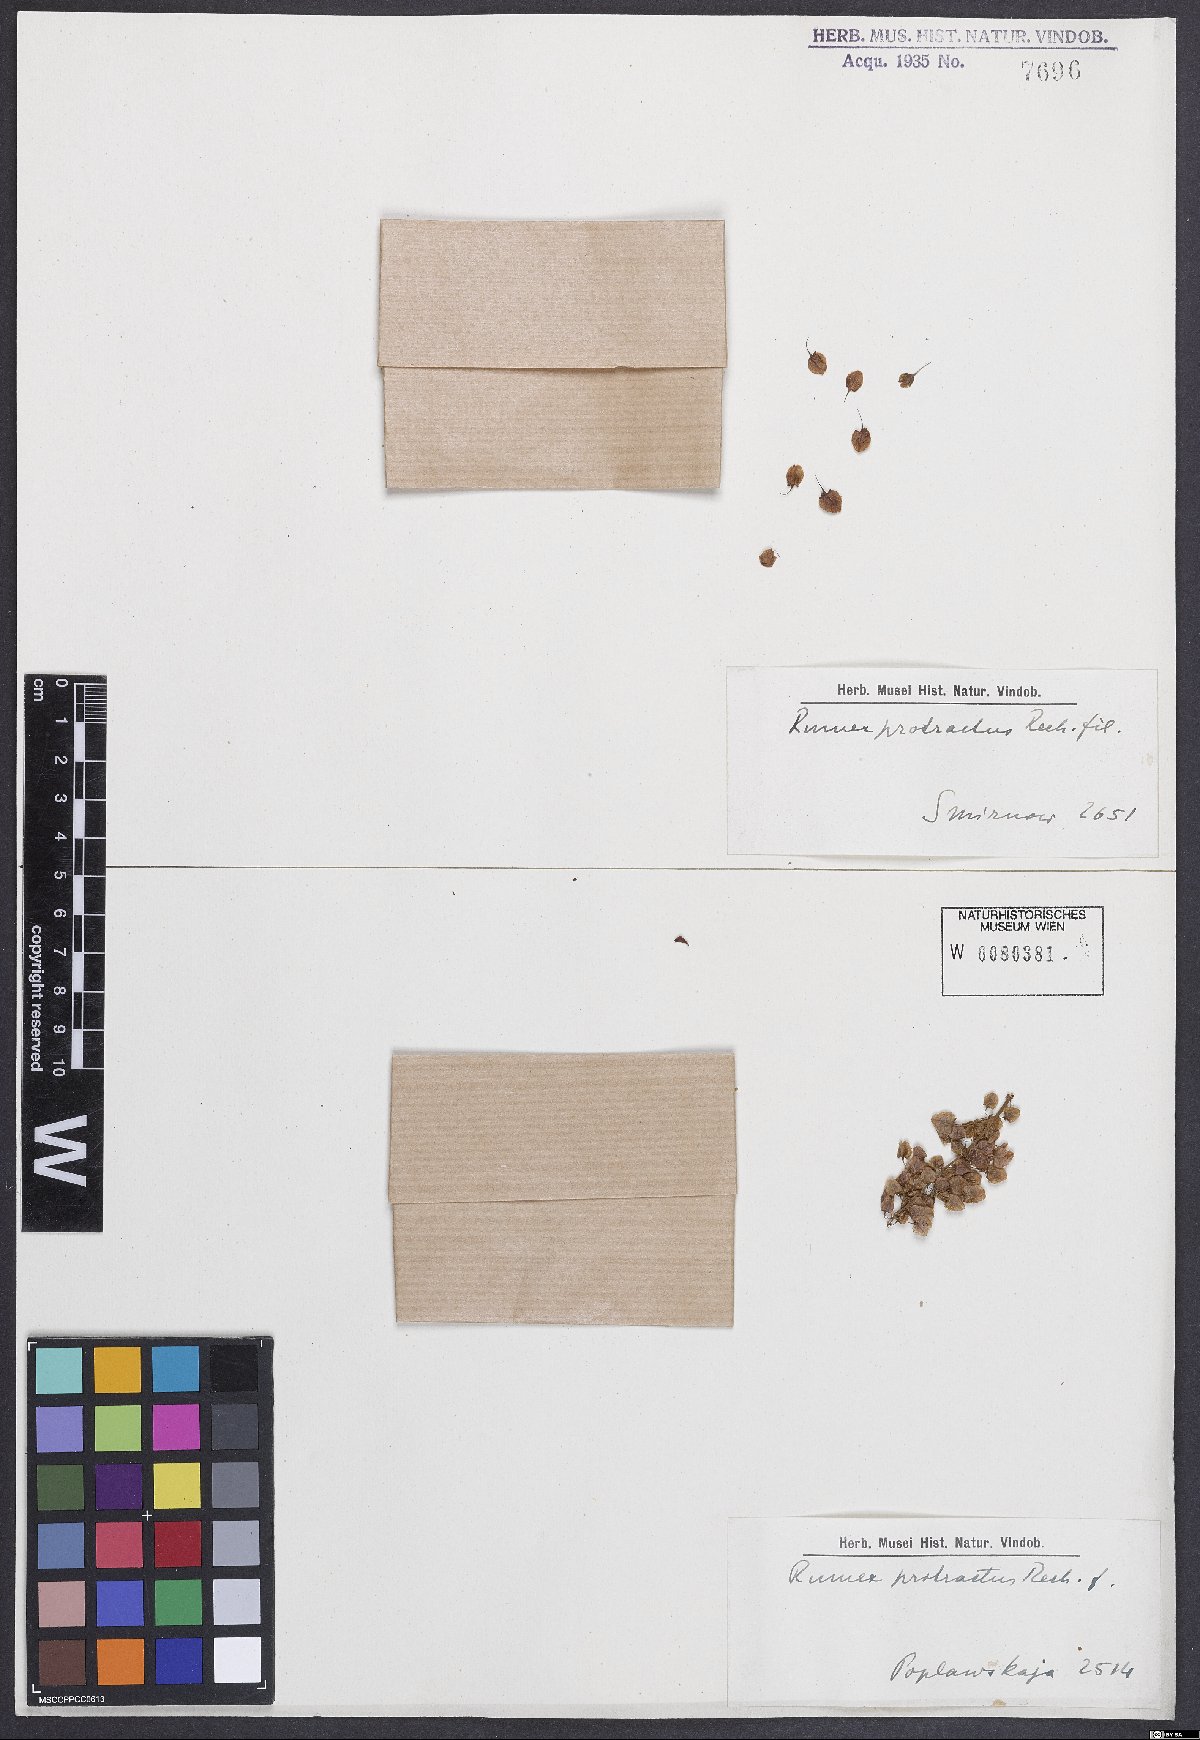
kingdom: Plantae
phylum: Tracheophyta
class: Magnoliopsida
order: Caryophyllales
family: Polygonaceae
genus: Rumex
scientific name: Rumex aquaticus
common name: Scottish dock
